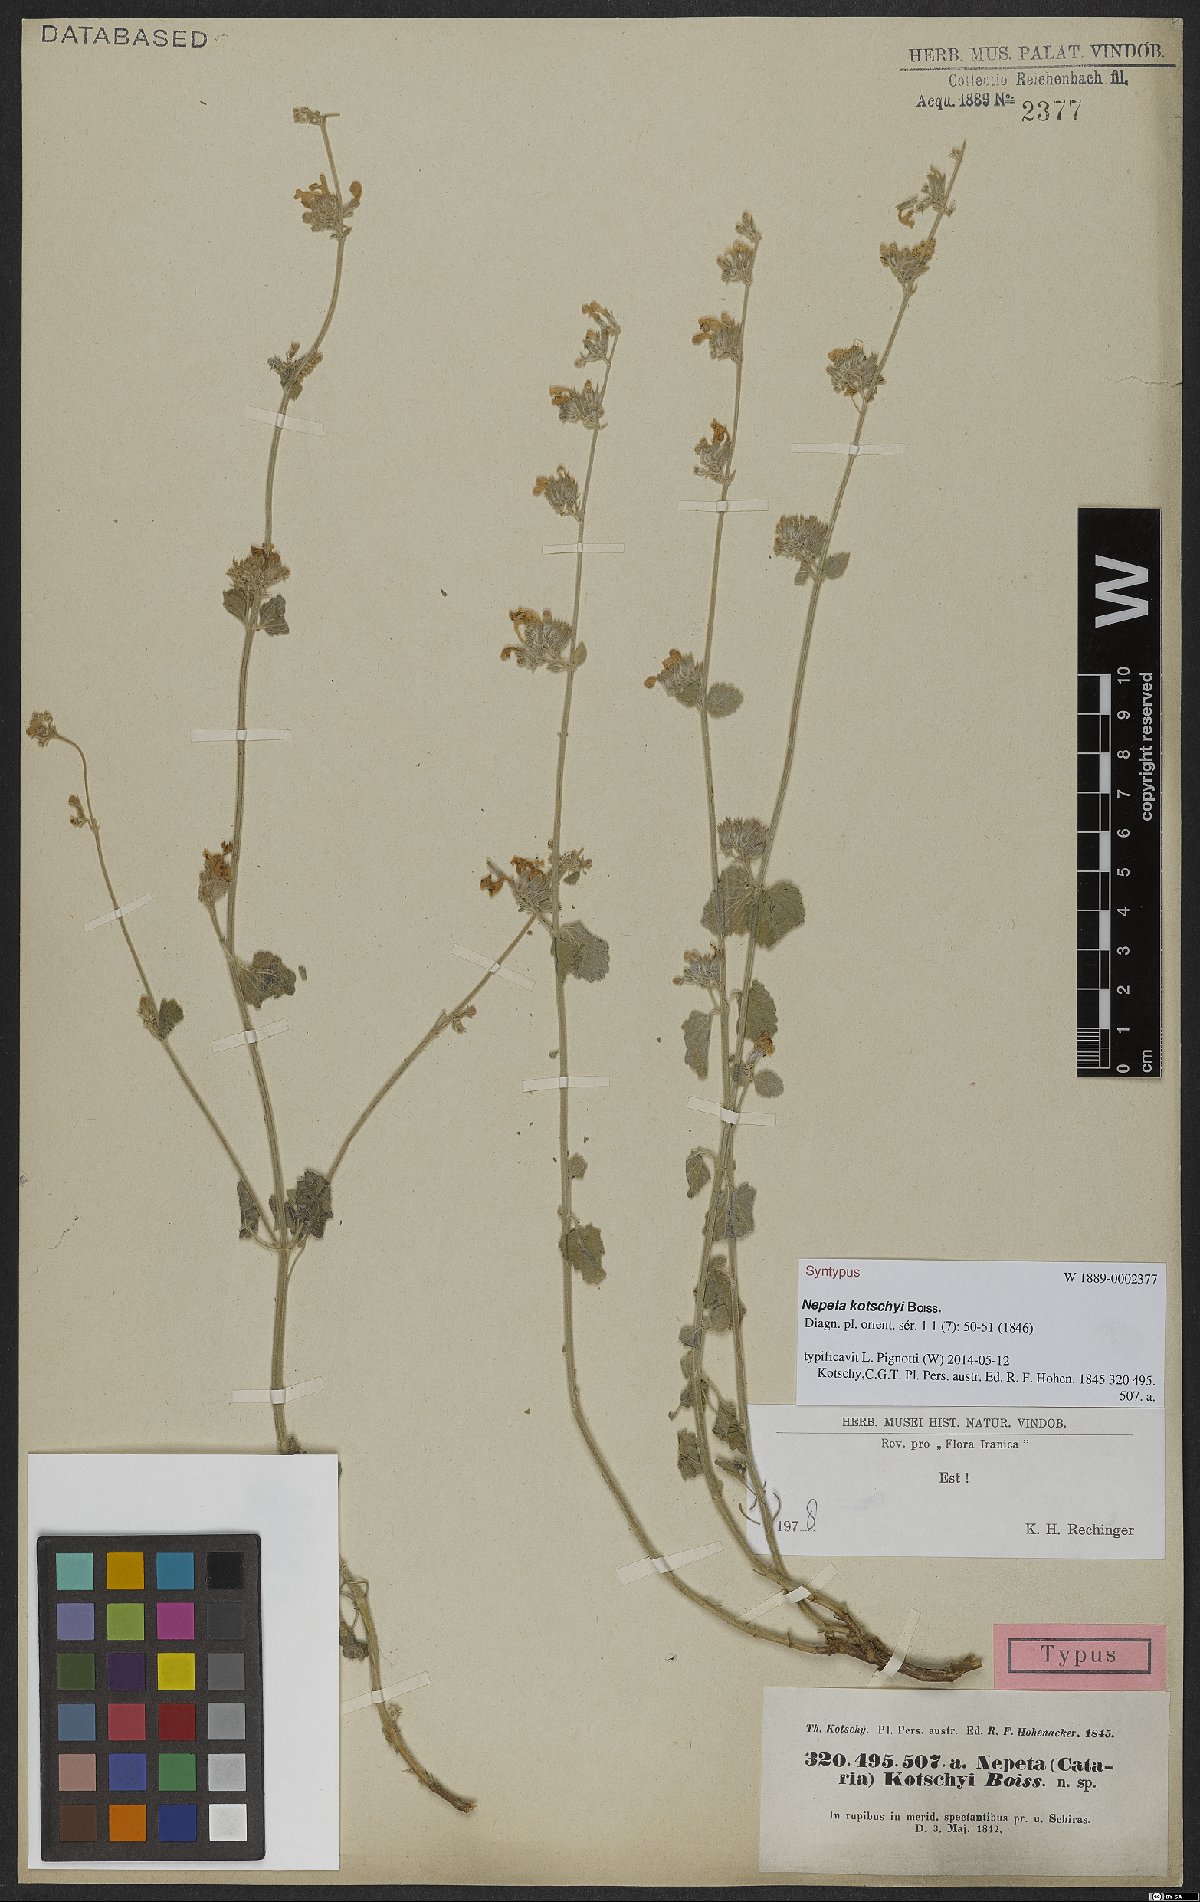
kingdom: Plantae
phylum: Tracheophyta
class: Magnoliopsida
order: Lamiales
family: Lamiaceae
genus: Nepeta
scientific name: Nepeta kotschyi
